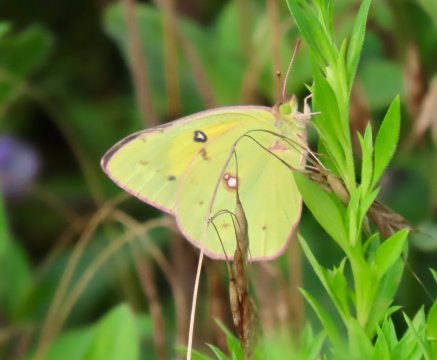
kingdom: Animalia
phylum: Arthropoda
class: Insecta
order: Lepidoptera
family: Pieridae
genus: Colias
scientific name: Colias eurytheme
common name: Orange Sulphur
